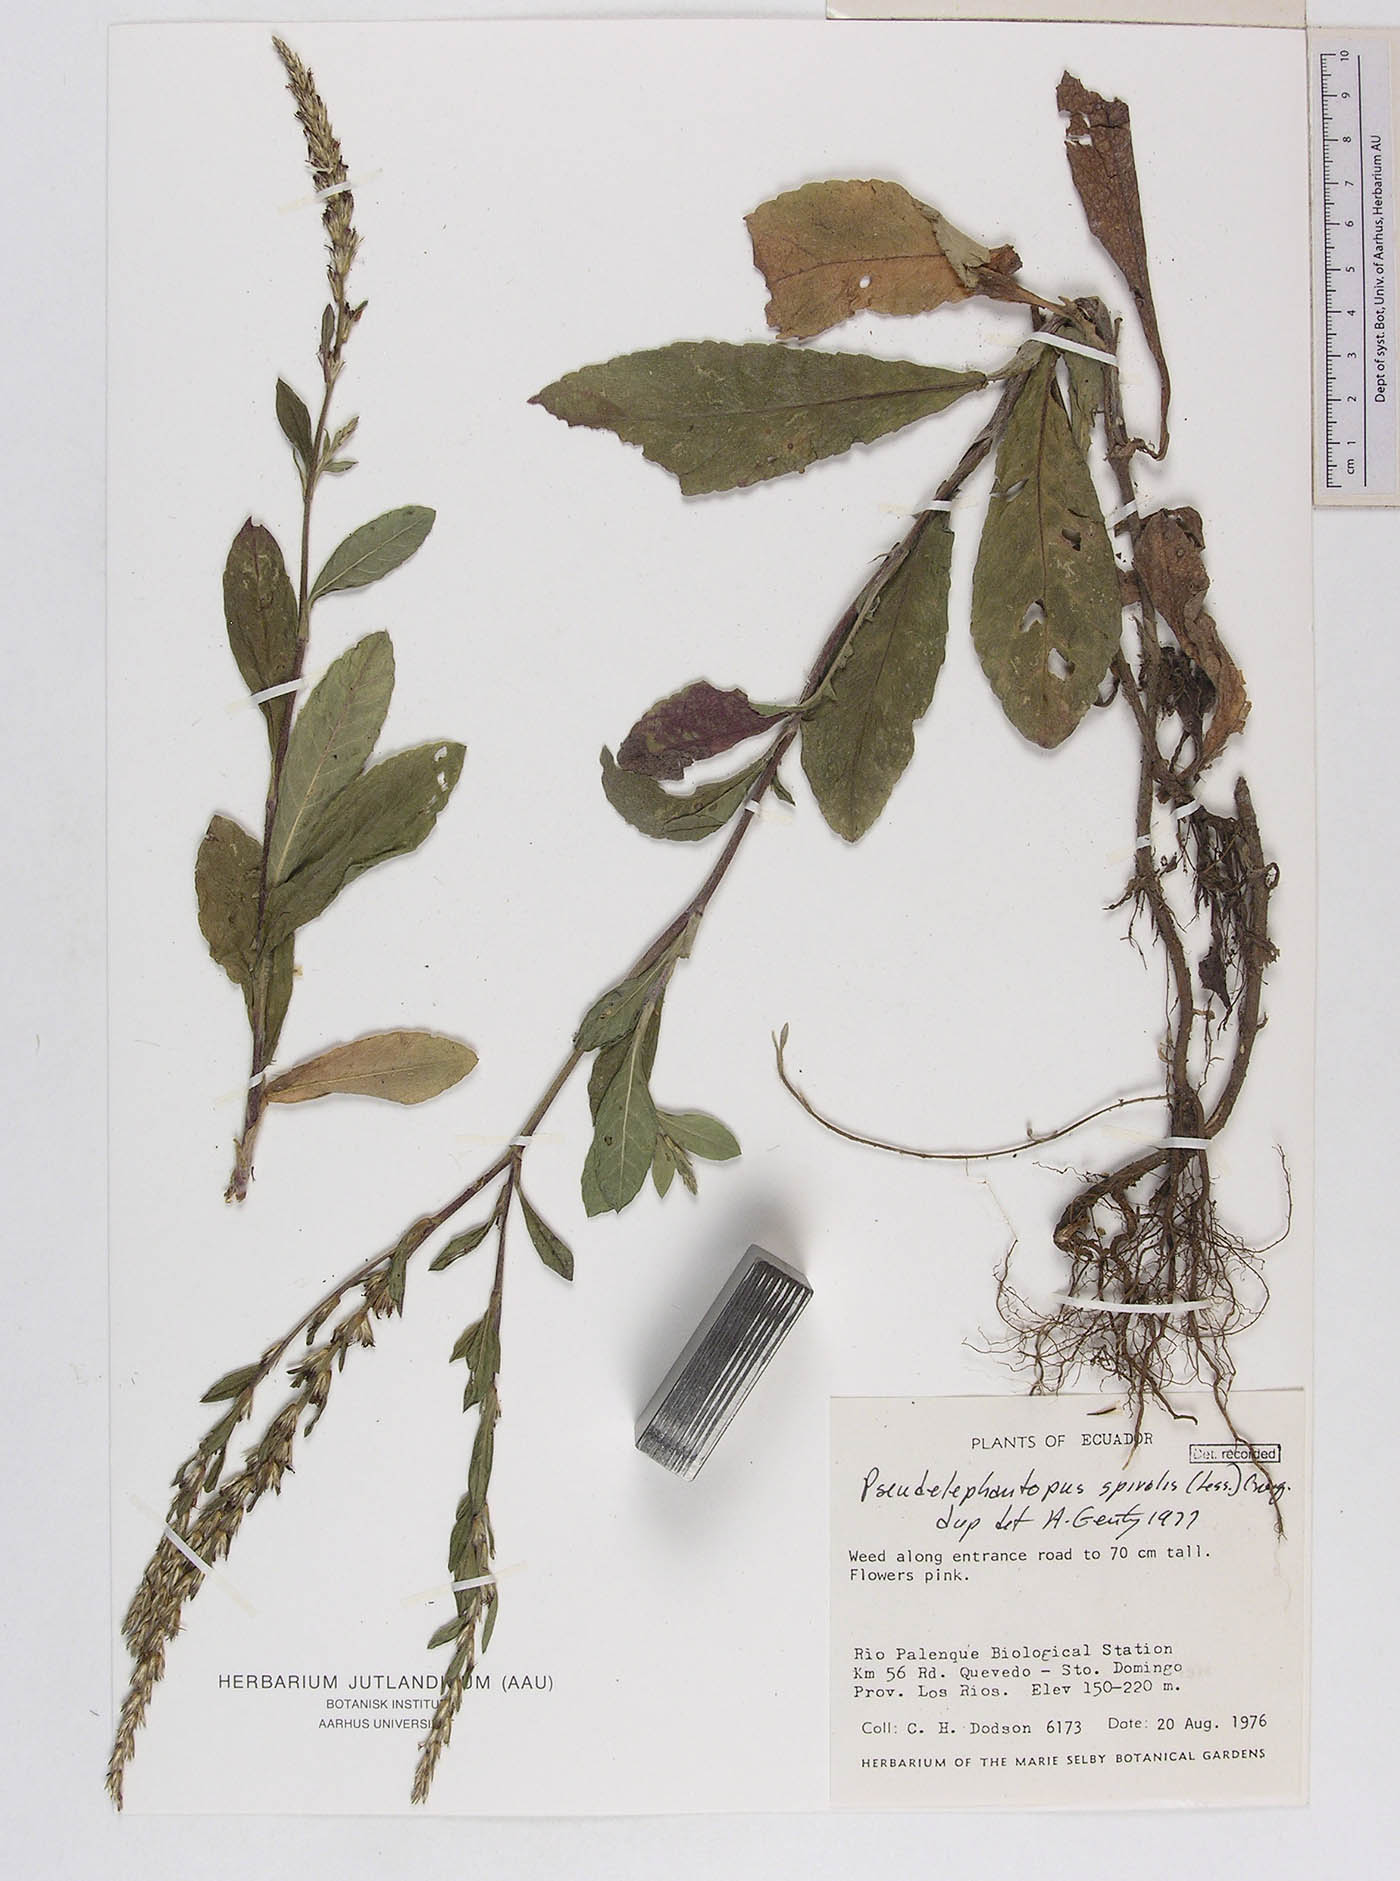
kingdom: Plantae
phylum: Tracheophyta
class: Magnoliopsida
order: Asterales
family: Asteraceae
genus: Pseudelephantopus
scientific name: Pseudelephantopus spiralis
